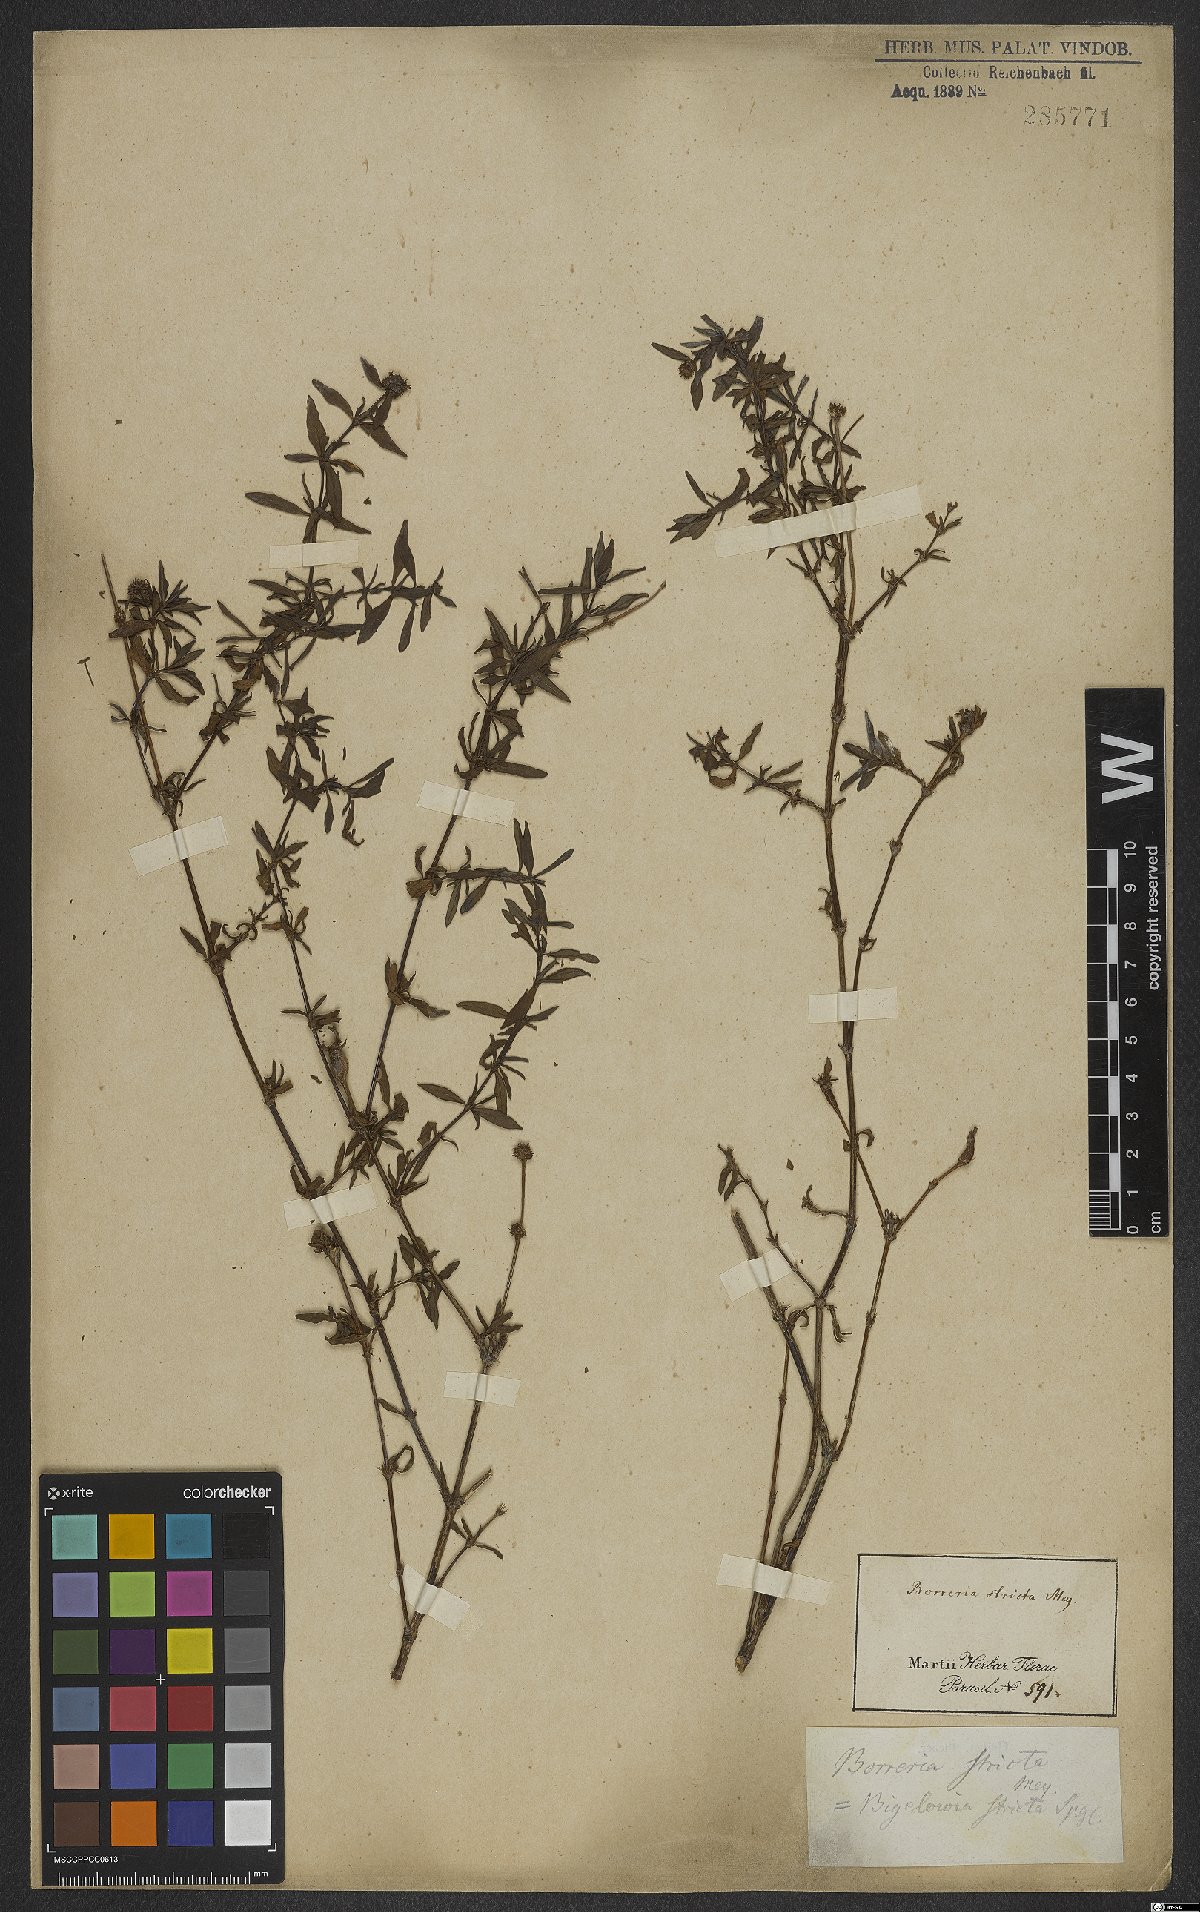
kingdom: Plantae
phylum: Tracheophyta
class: Magnoliopsida
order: Gentianales
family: Rubiaceae
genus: Spermacoce
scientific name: Spermacoce ocymoides
